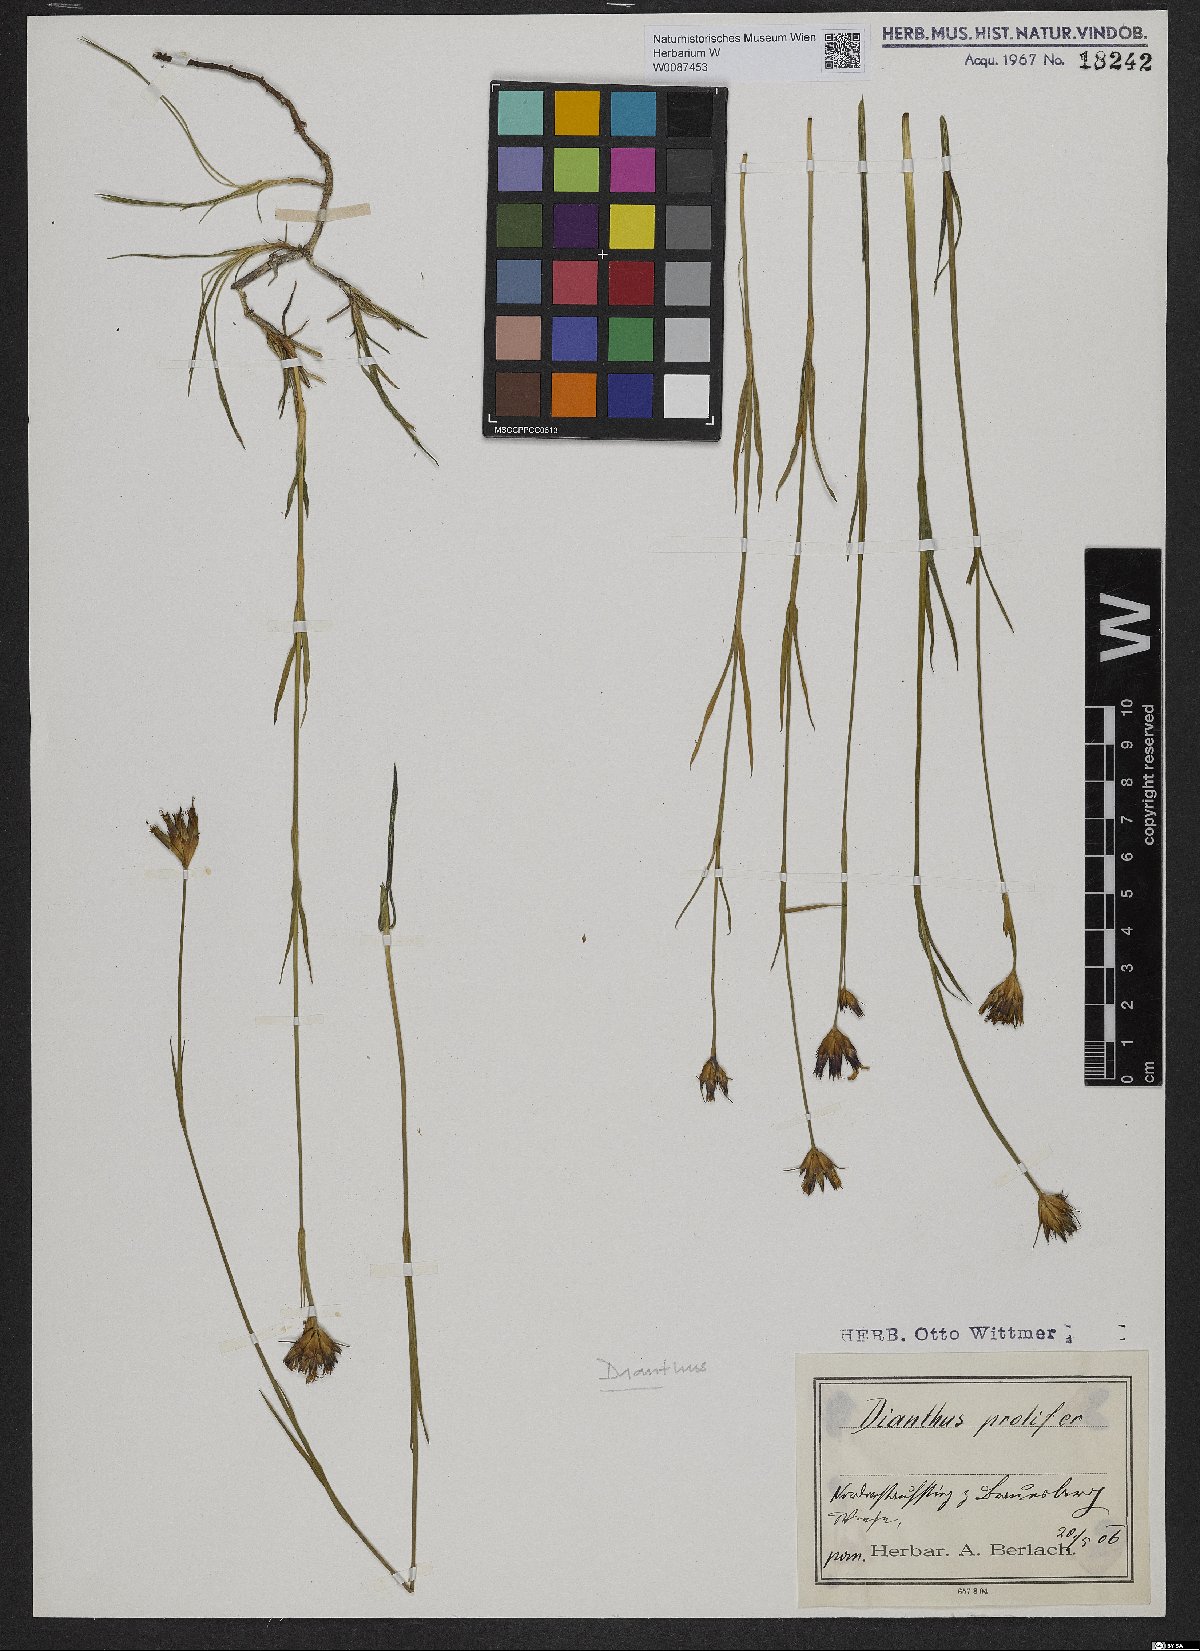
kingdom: Plantae
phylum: Tracheophyta
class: Magnoliopsida
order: Caryophyllales
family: Caryophyllaceae
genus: Dianthus
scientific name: Dianthus carthusianorum
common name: Carthusian pink
